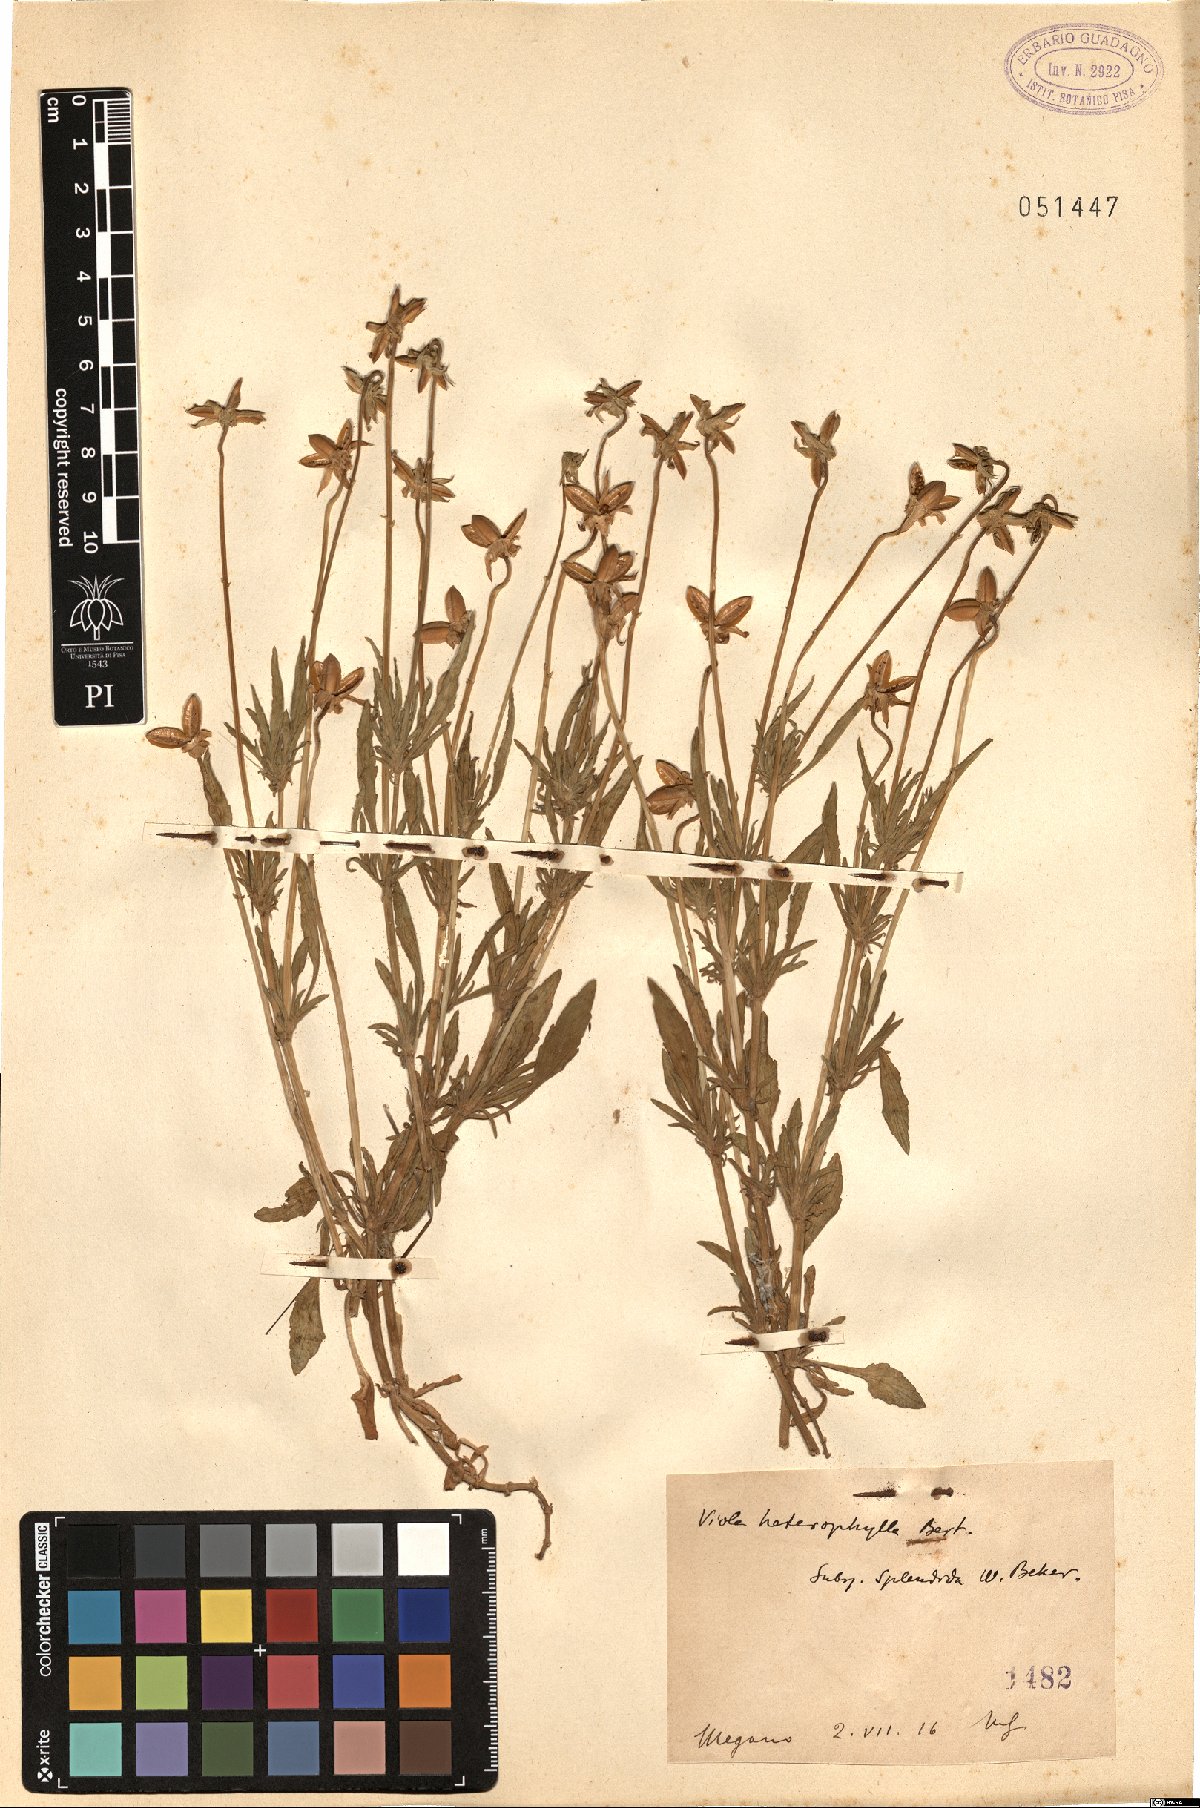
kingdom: Plantae
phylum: Tracheophyta
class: Magnoliopsida
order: Malpighiales
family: Violaceae
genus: Viola
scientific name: Viola aethnensis
